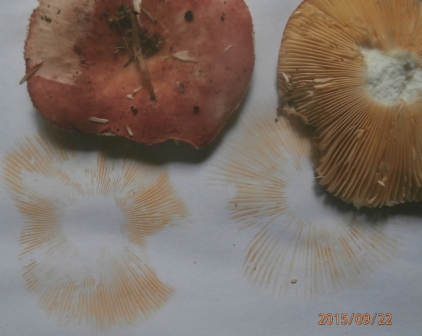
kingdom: Fungi
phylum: Basidiomycota
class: Agaricomycetes
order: Russulales
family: Russulaceae
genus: Russula
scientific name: Russula
